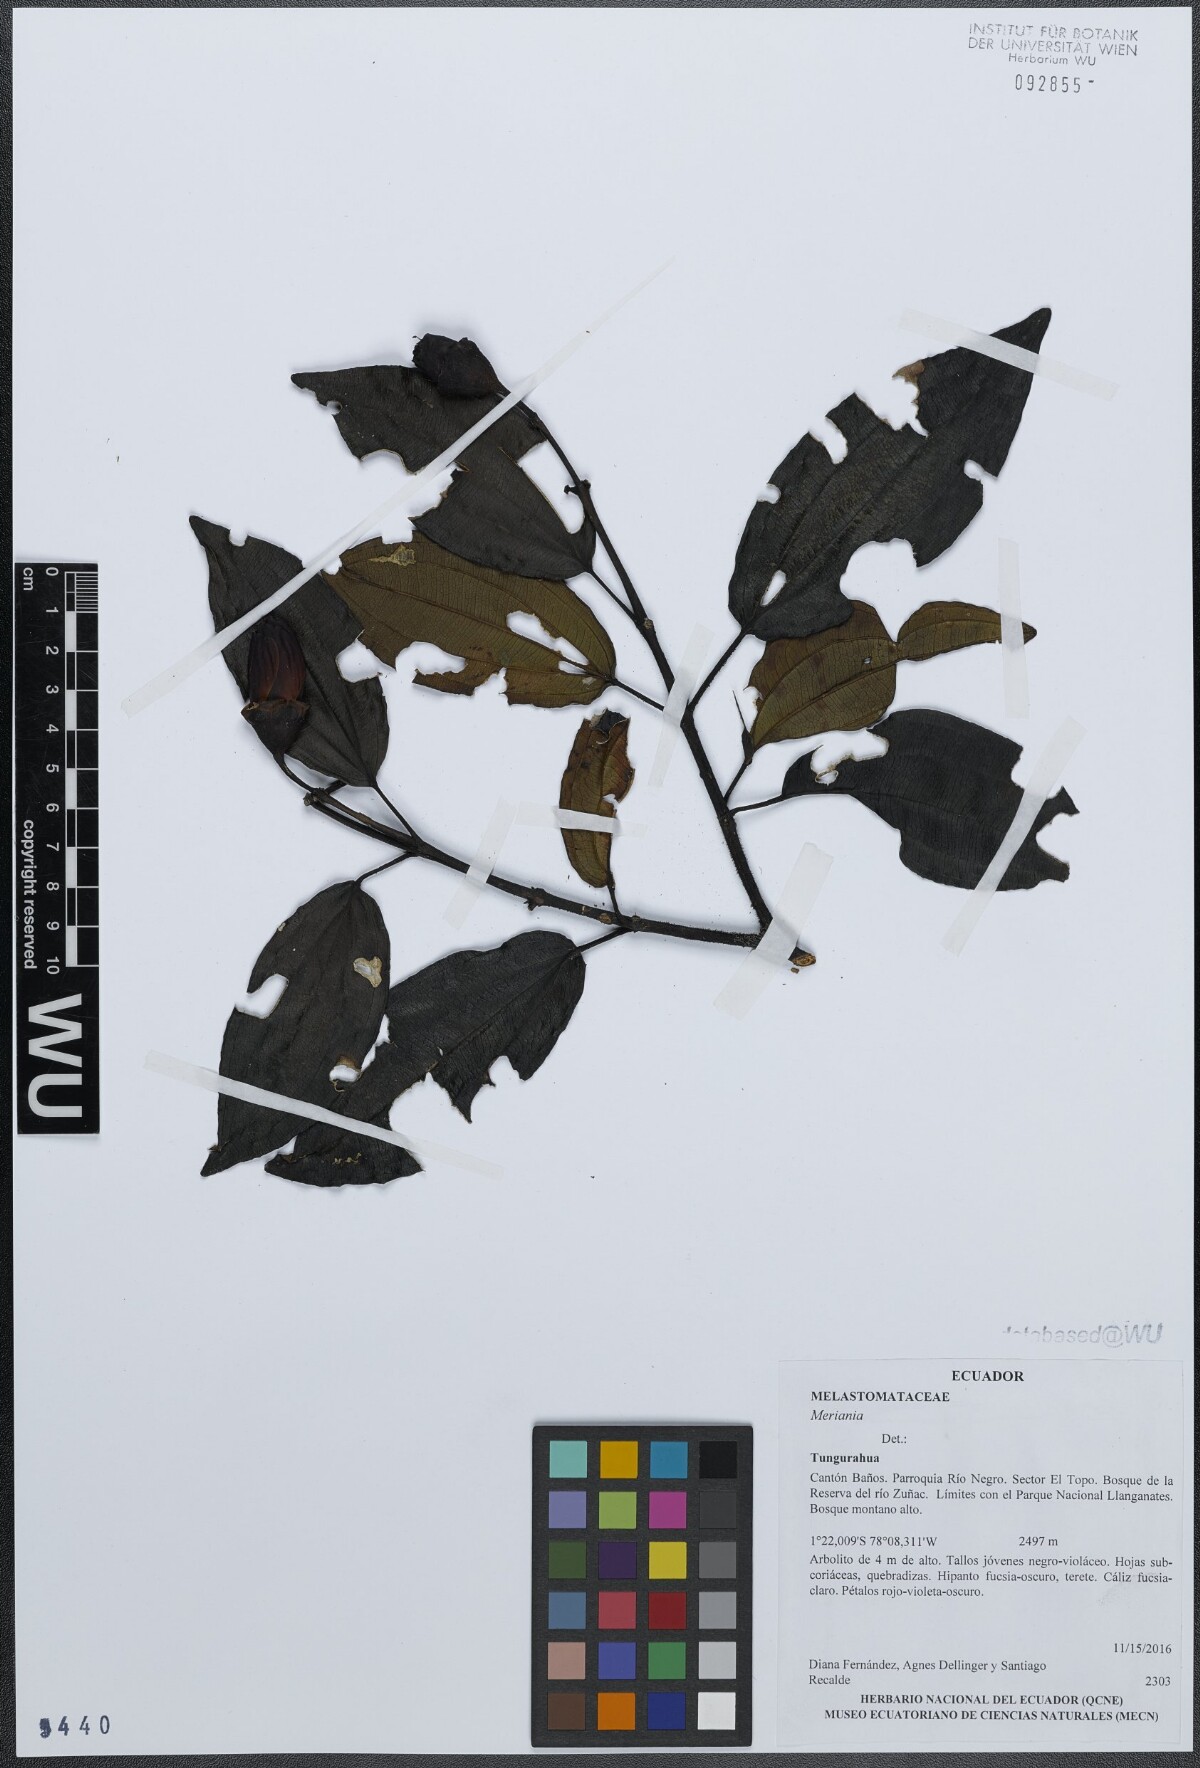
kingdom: Plantae
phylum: Tracheophyta
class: Magnoliopsida
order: Myrtales
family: Melastomataceae
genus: Meriania
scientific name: Meriania
